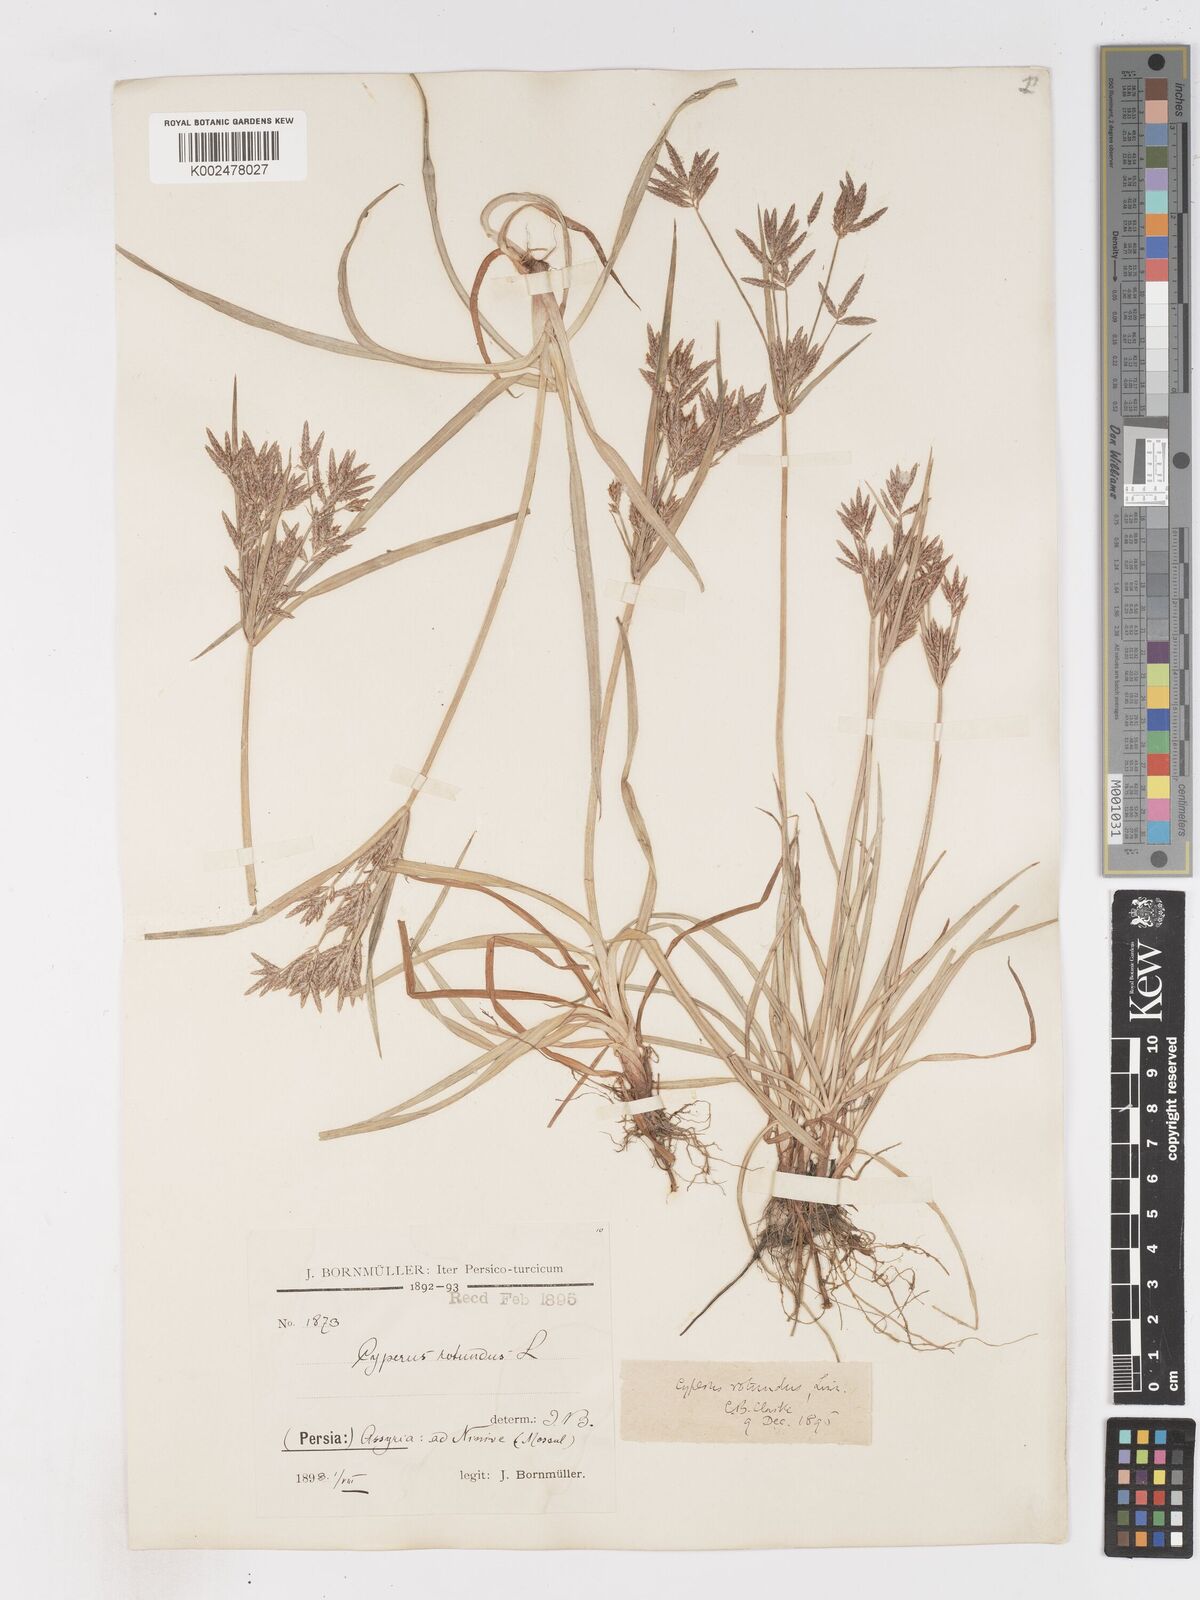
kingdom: Plantae
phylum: Tracheophyta
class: Liliopsida
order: Poales
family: Cyperaceae
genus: Cyperus
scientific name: Cyperus rotundus
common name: Nutgrass
